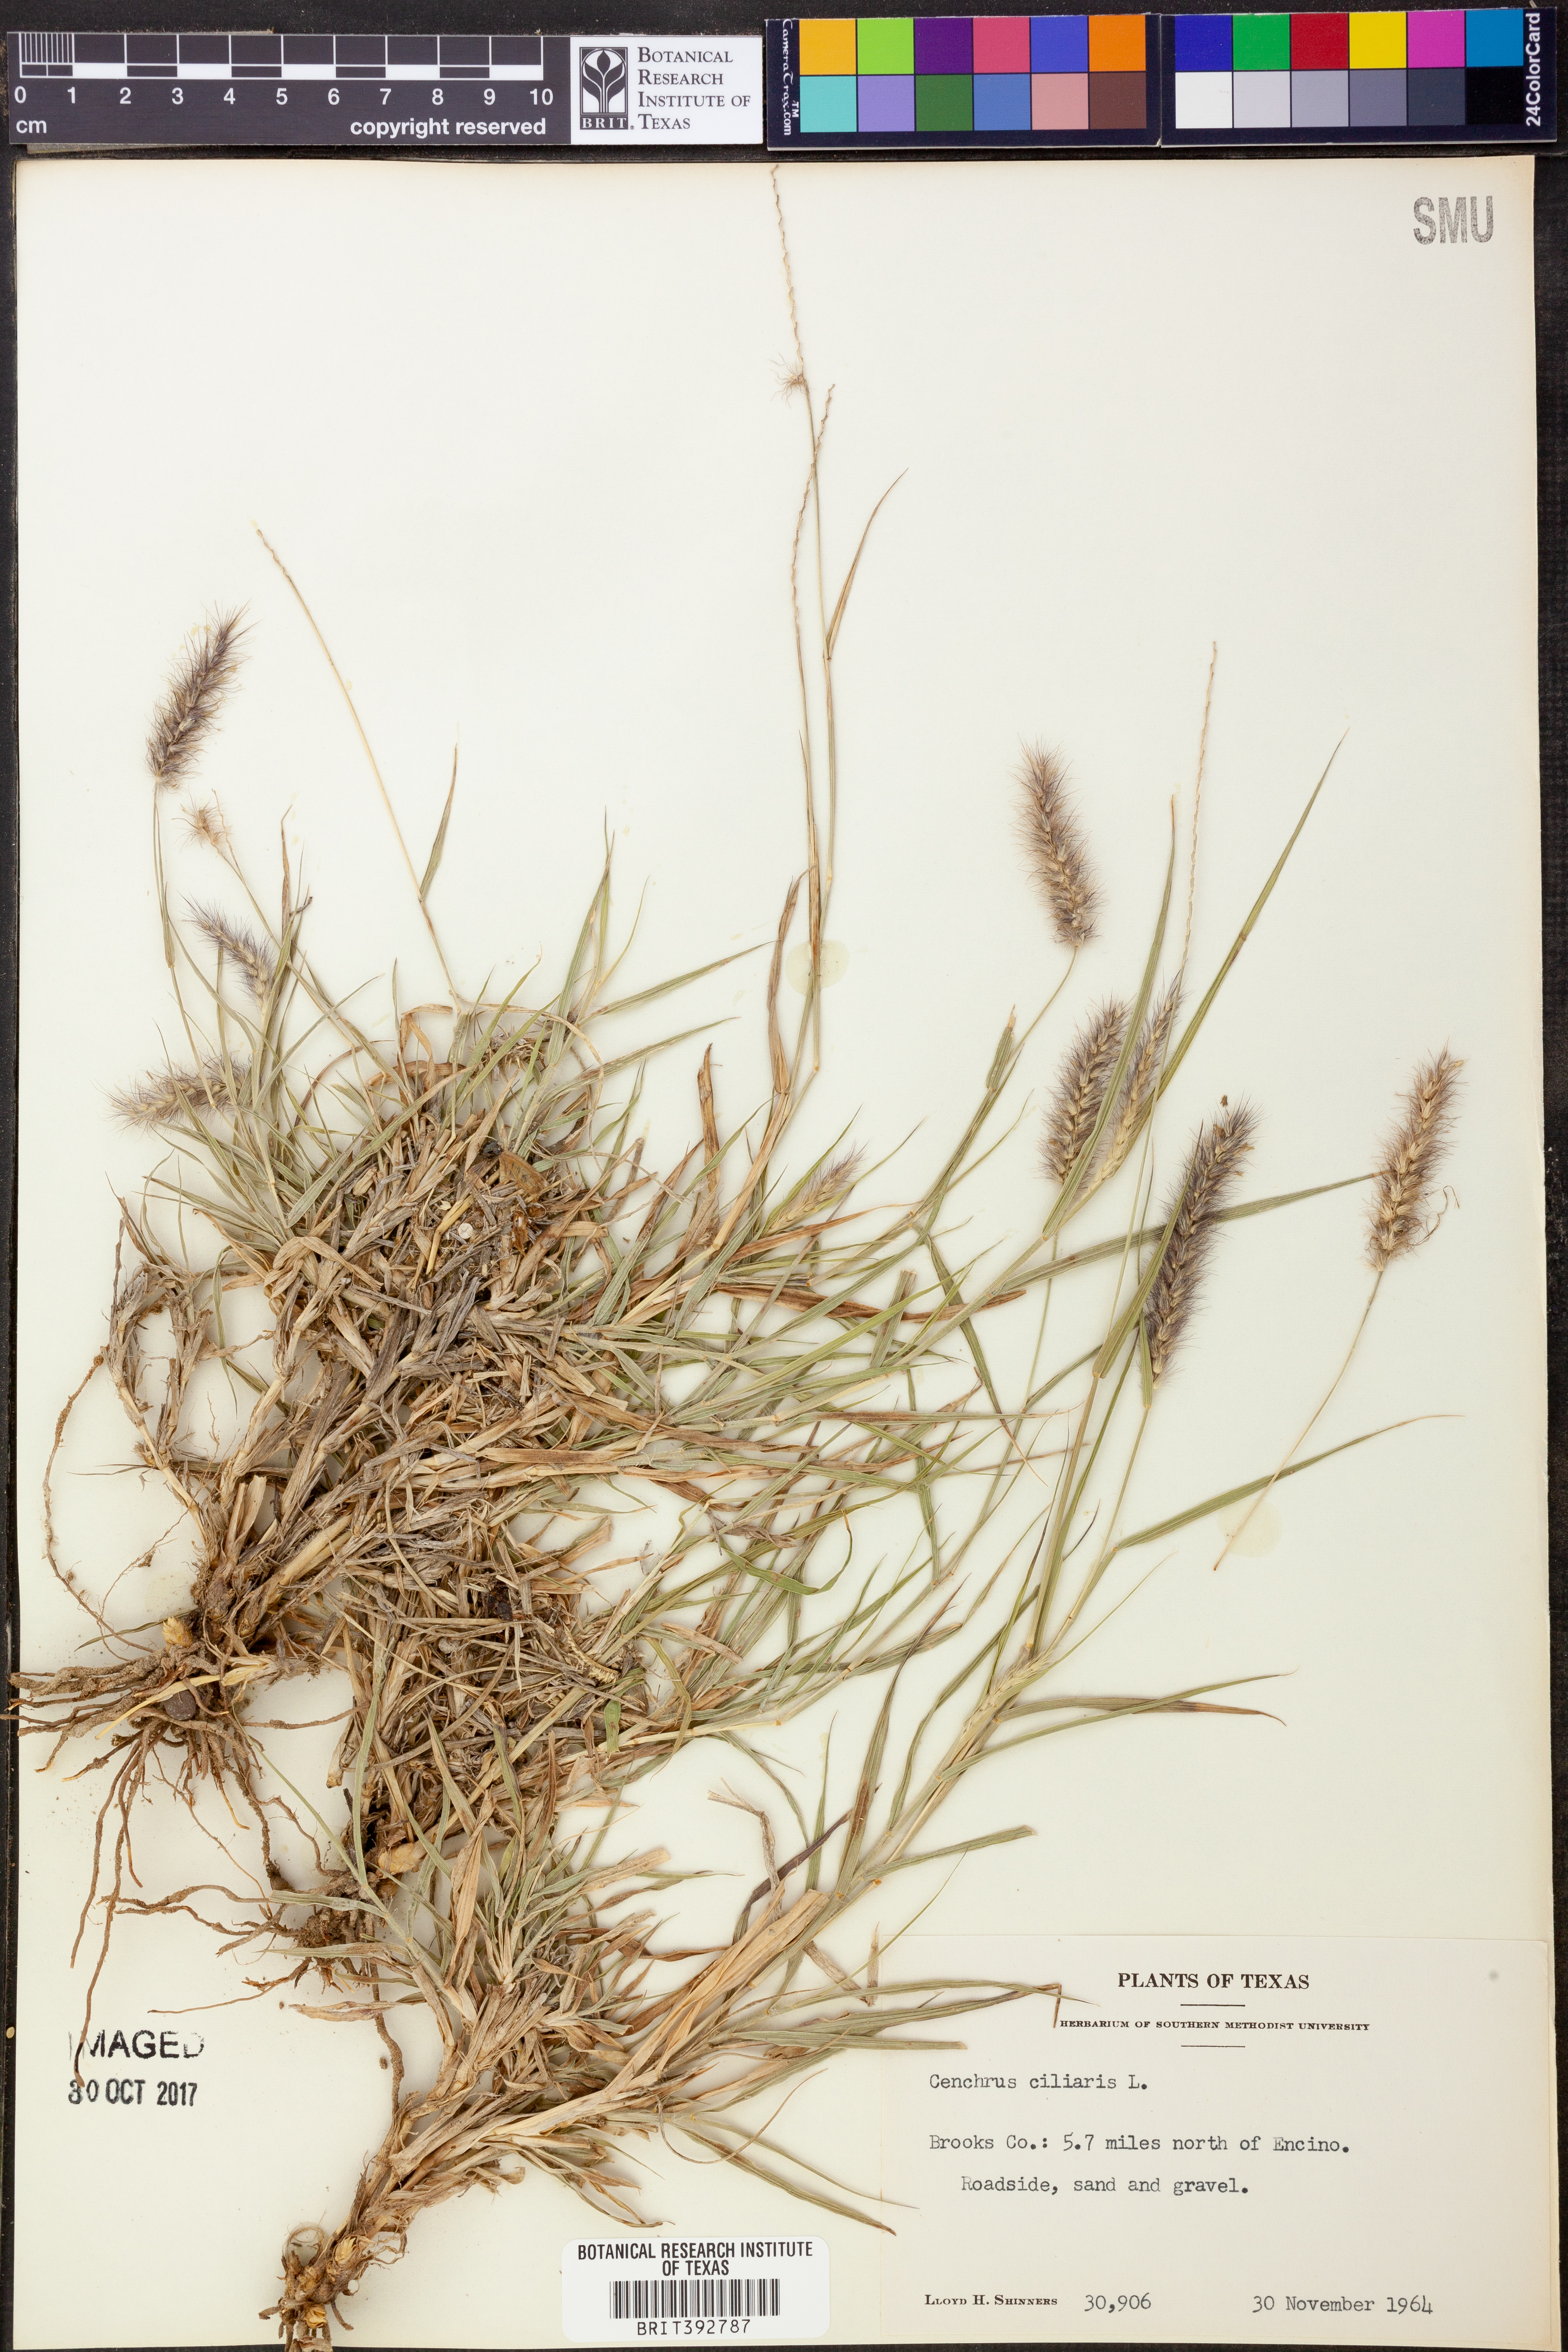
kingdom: Plantae
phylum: Tracheophyta
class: Liliopsida
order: Poales
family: Poaceae
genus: Cenchrus
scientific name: Cenchrus ciliaris
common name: Buffelgrass
